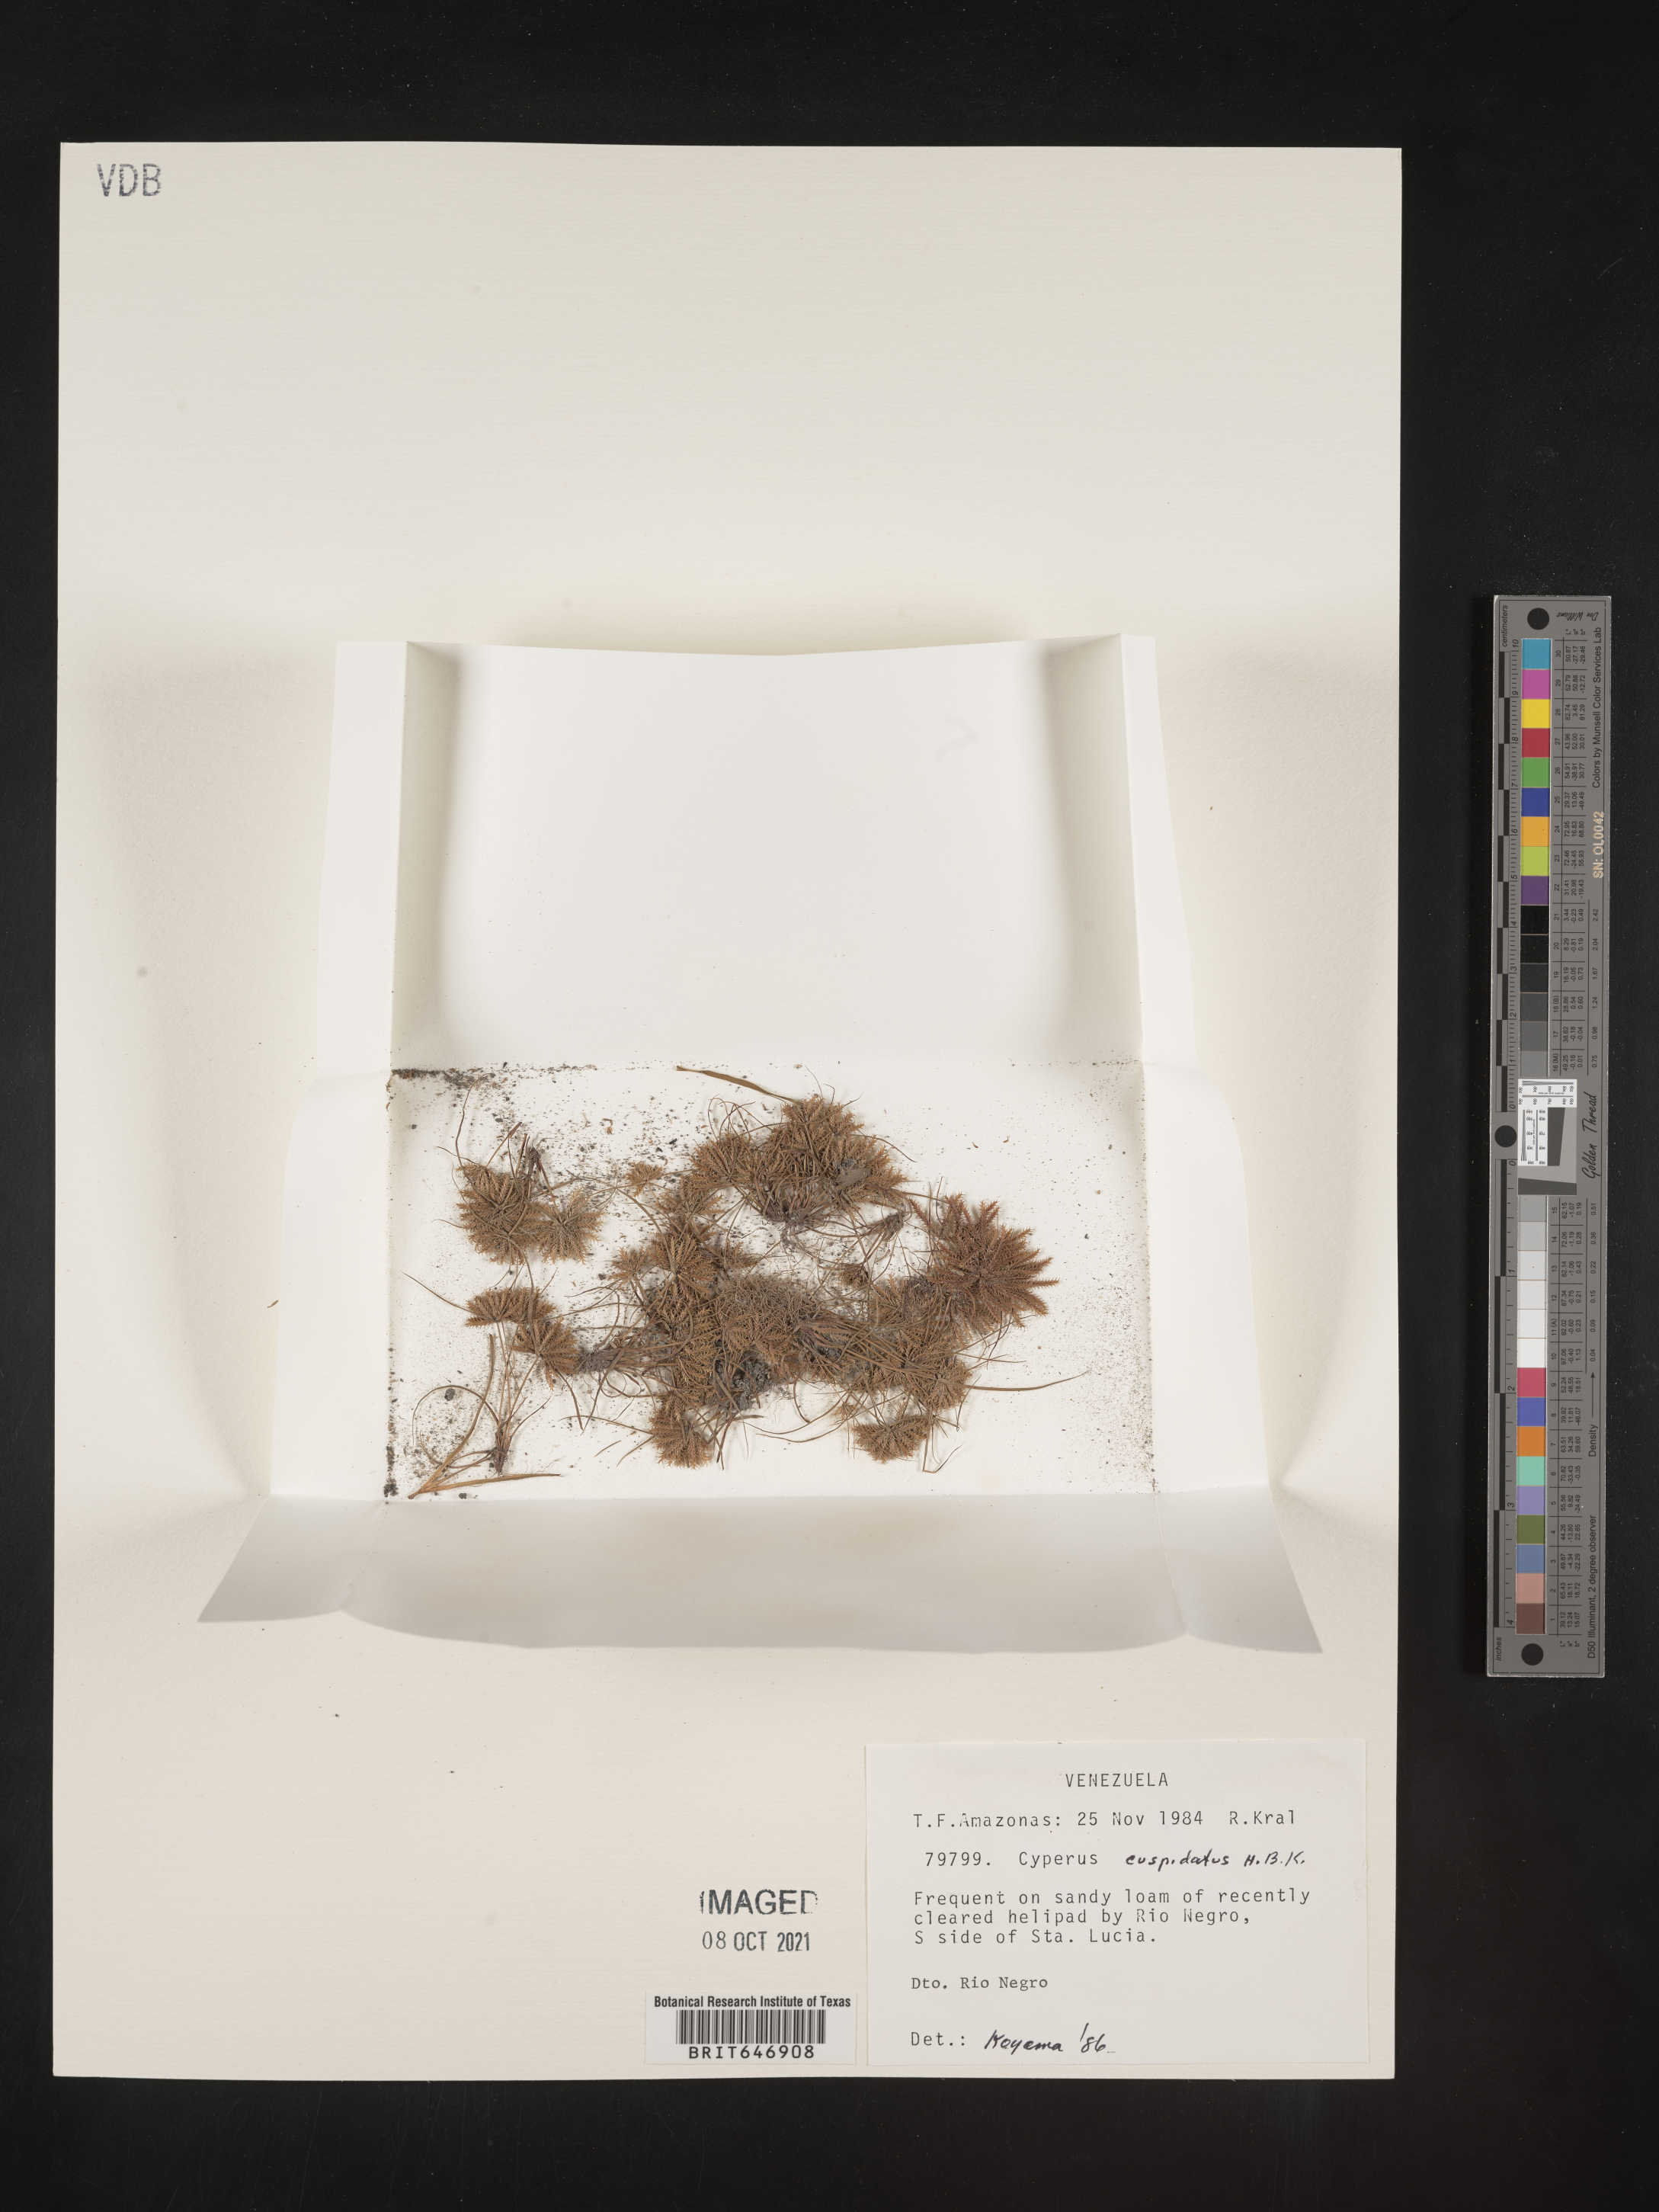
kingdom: Plantae
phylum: Tracheophyta
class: Liliopsida
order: Poales
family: Cyperaceae
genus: Cyperus
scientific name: Cyperus cuspidatus
